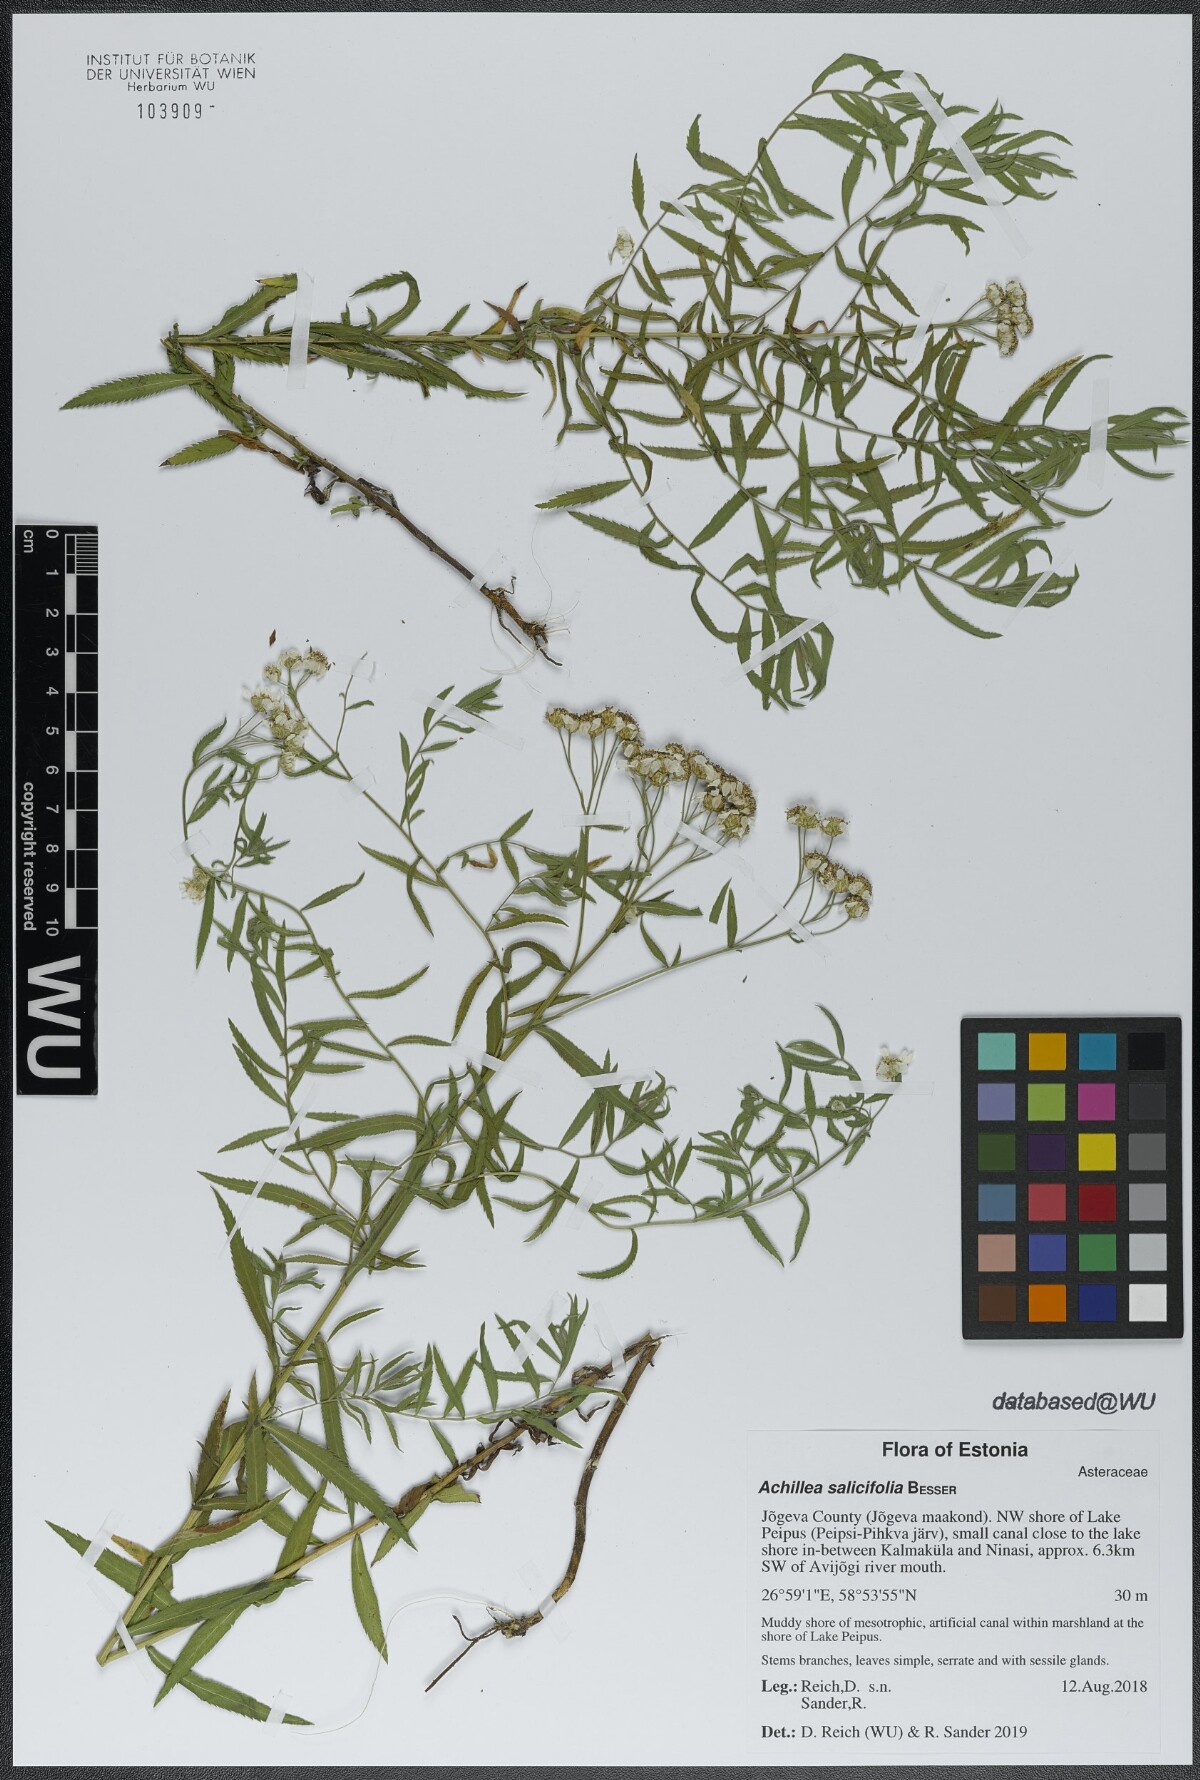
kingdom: Plantae
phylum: Tracheophyta
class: Magnoliopsida
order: Asterales
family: Asteraceae
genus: Achillea
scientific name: Achillea salicifolia
